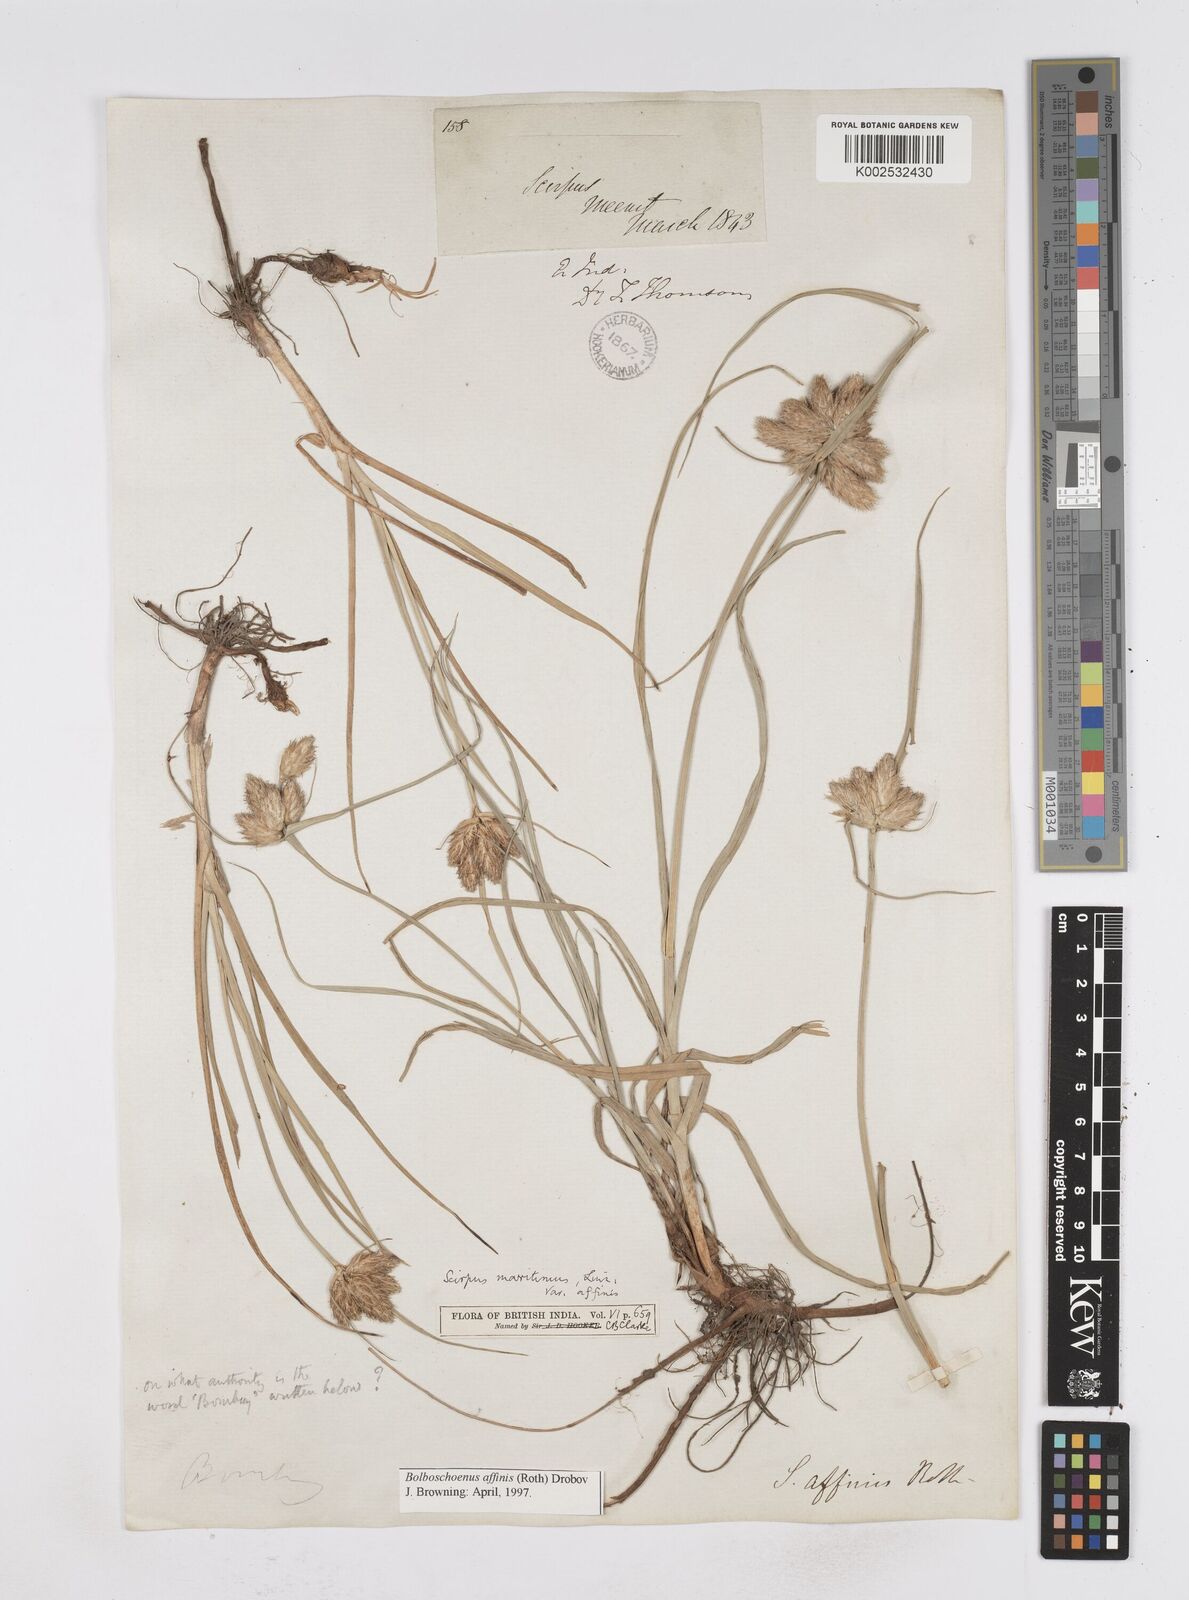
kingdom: Plantae
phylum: Tracheophyta
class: Liliopsida
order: Poales
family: Cyperaceae
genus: Bolboschoenus
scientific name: Bolboschoenus maritimus
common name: Sea club-rush
